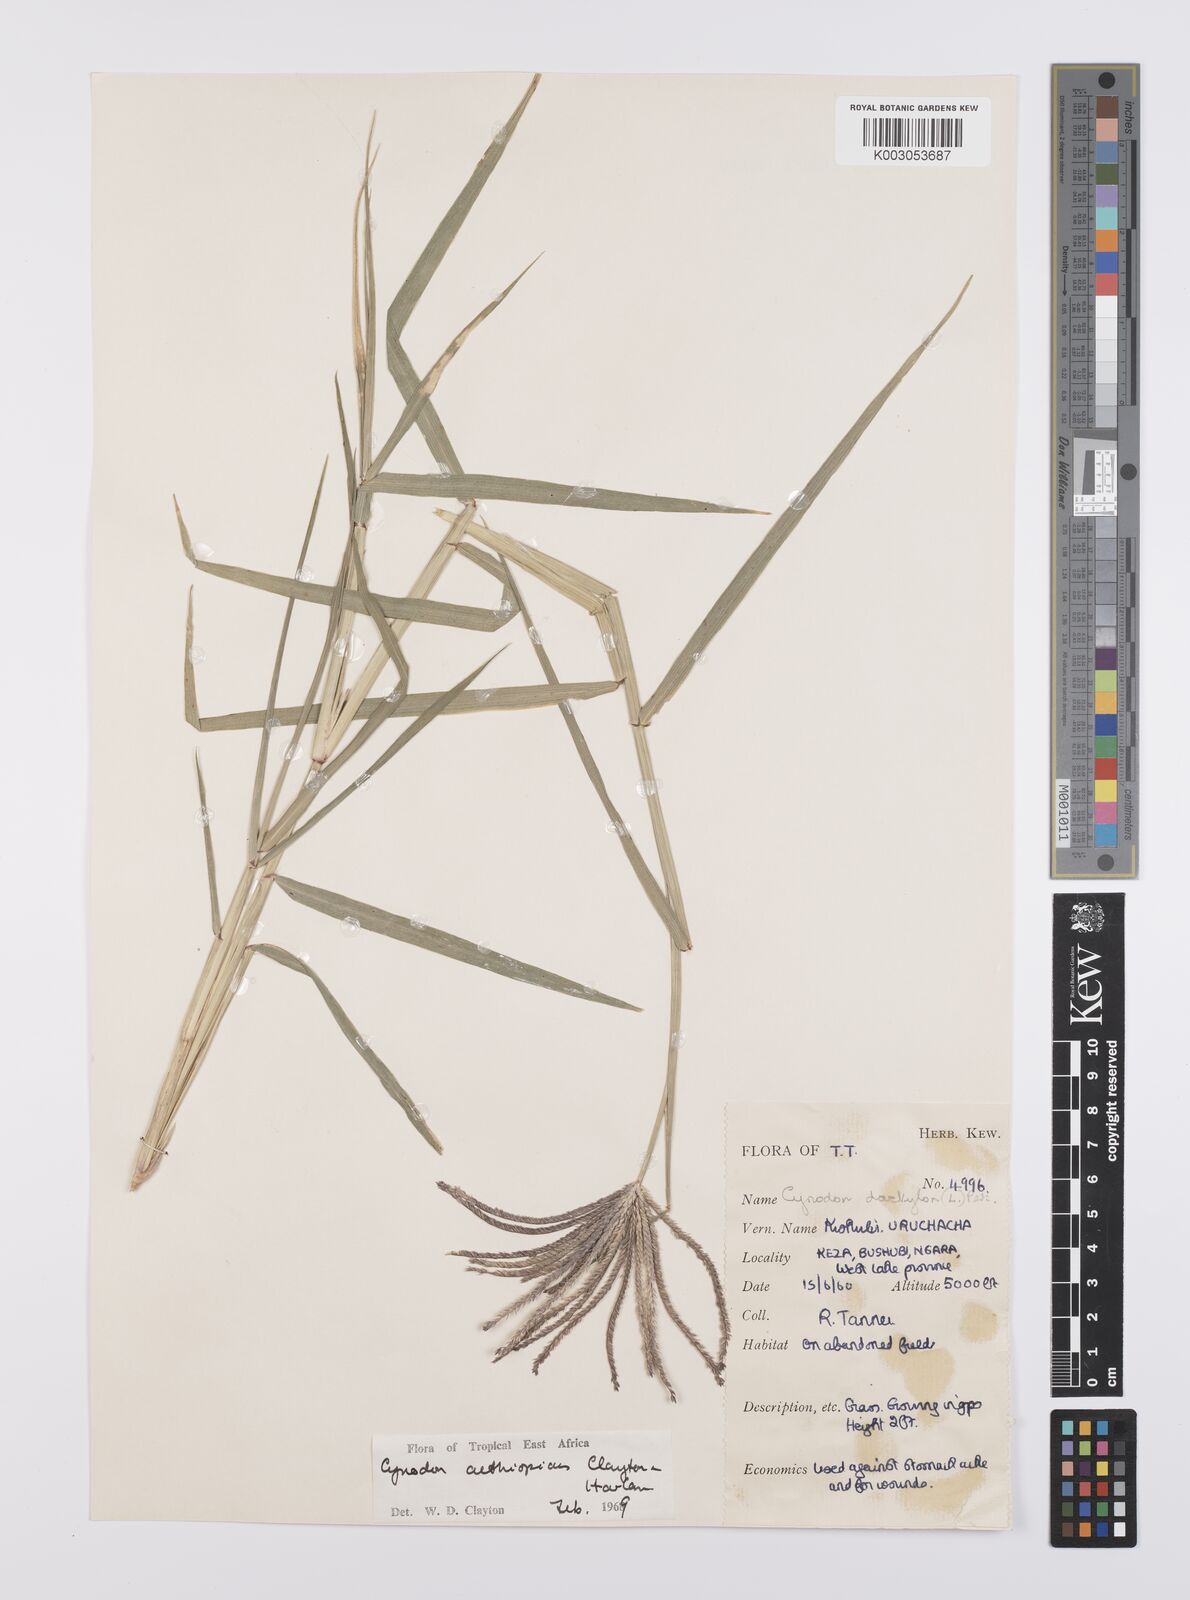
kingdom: Plantae
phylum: Tracheophyta
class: Liliopsida
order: Poales
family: Poaceae
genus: Cynodon
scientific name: Cynodon aethiopicus
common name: Ethiopian dogstooth grass
